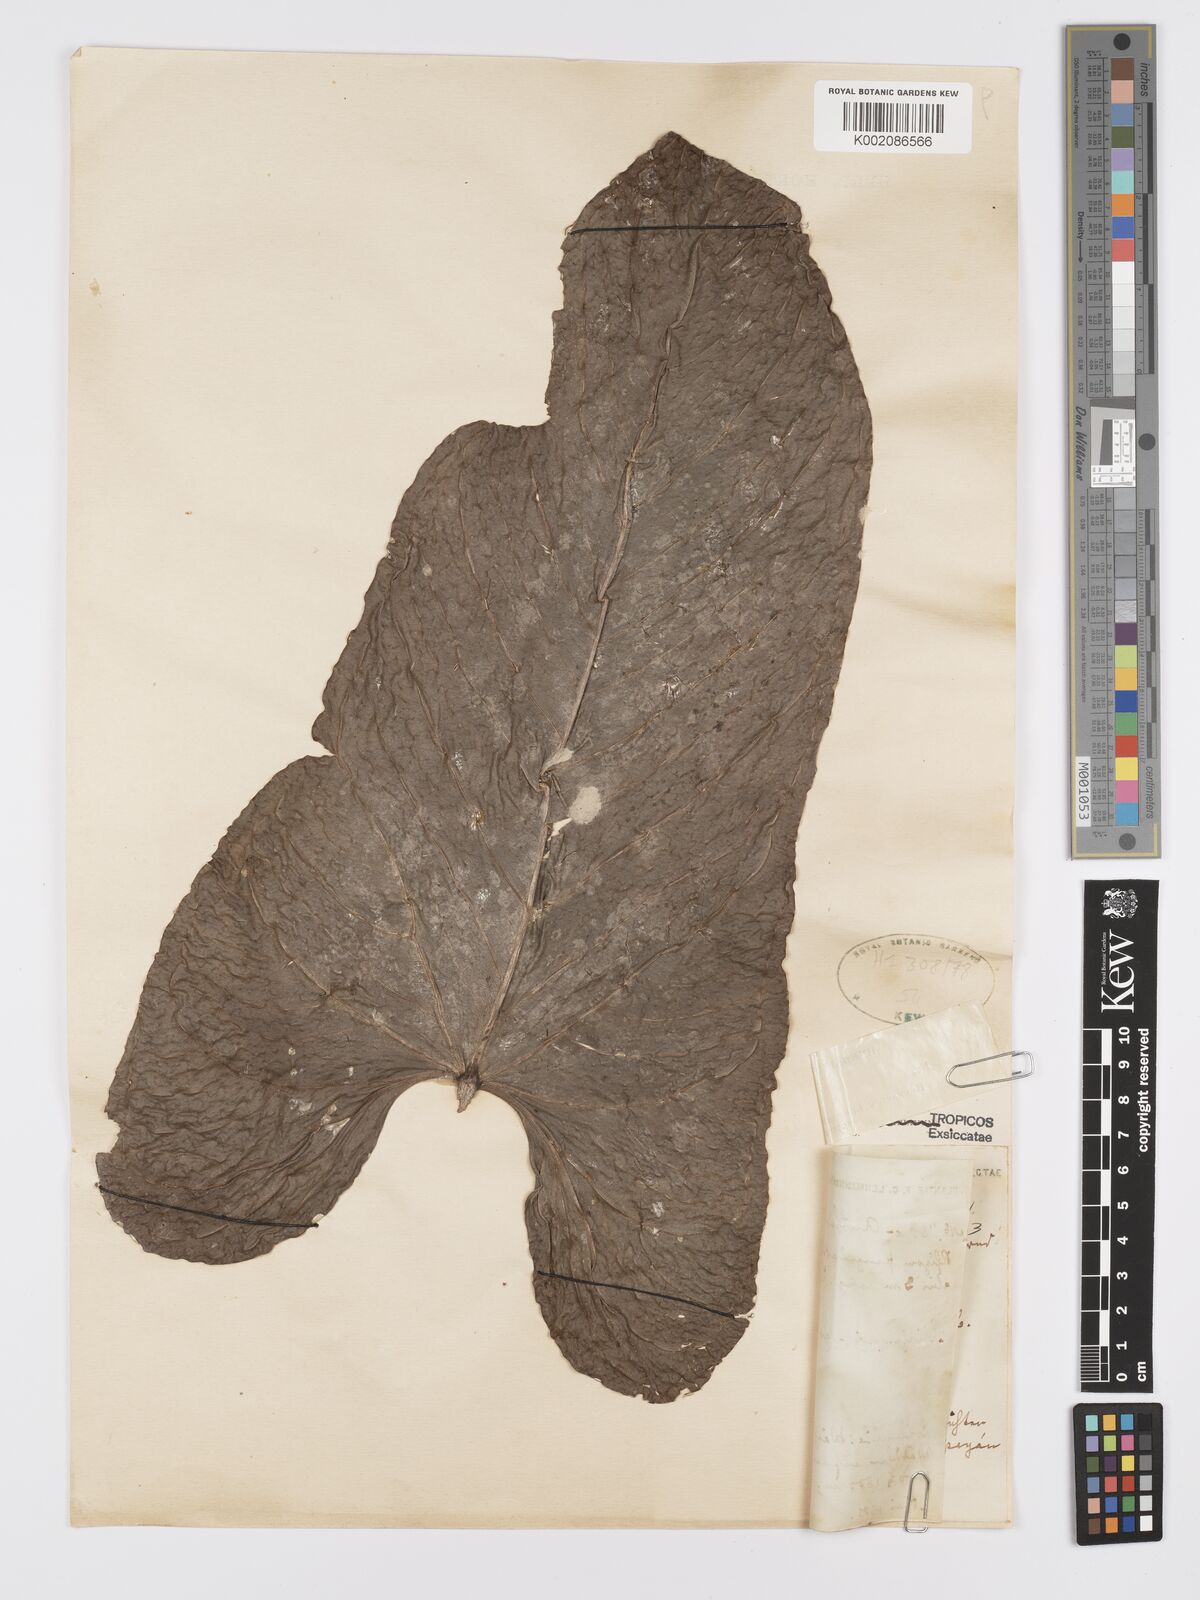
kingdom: Plantae
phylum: Tracheophyta
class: Liliopsida
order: Alismatales
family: Araceae
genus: Anthurium
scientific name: Anthurium nigrescens
